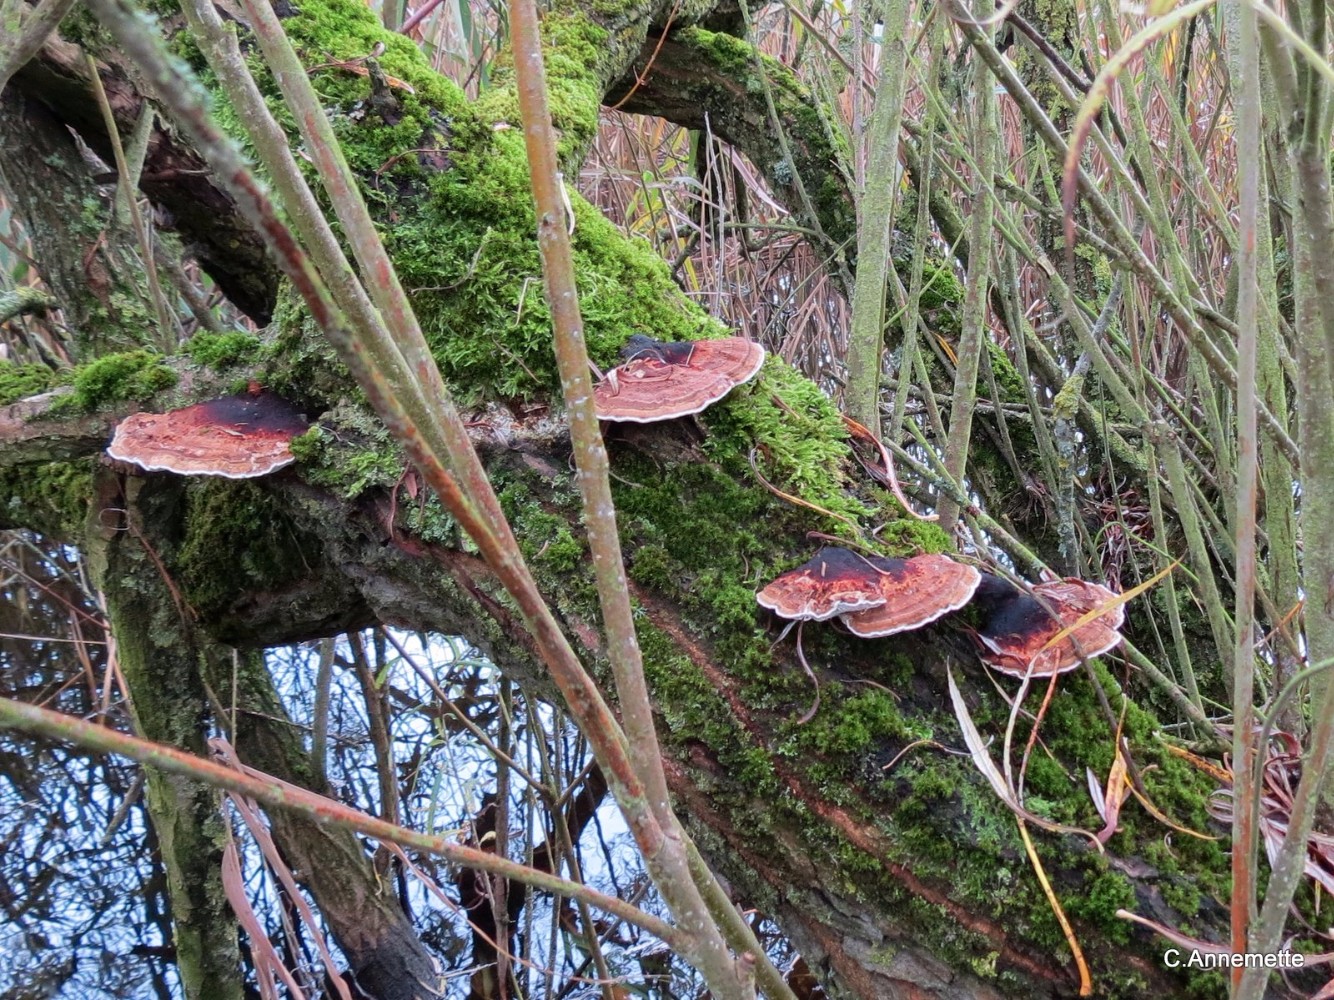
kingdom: Fungi
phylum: Basidiomycota
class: Agaricomycetes
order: Polyporales
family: Polyporaceae
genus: Daedaleopsis
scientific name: Daedaleopsis confragosa
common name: rødmende læderporesvamp
